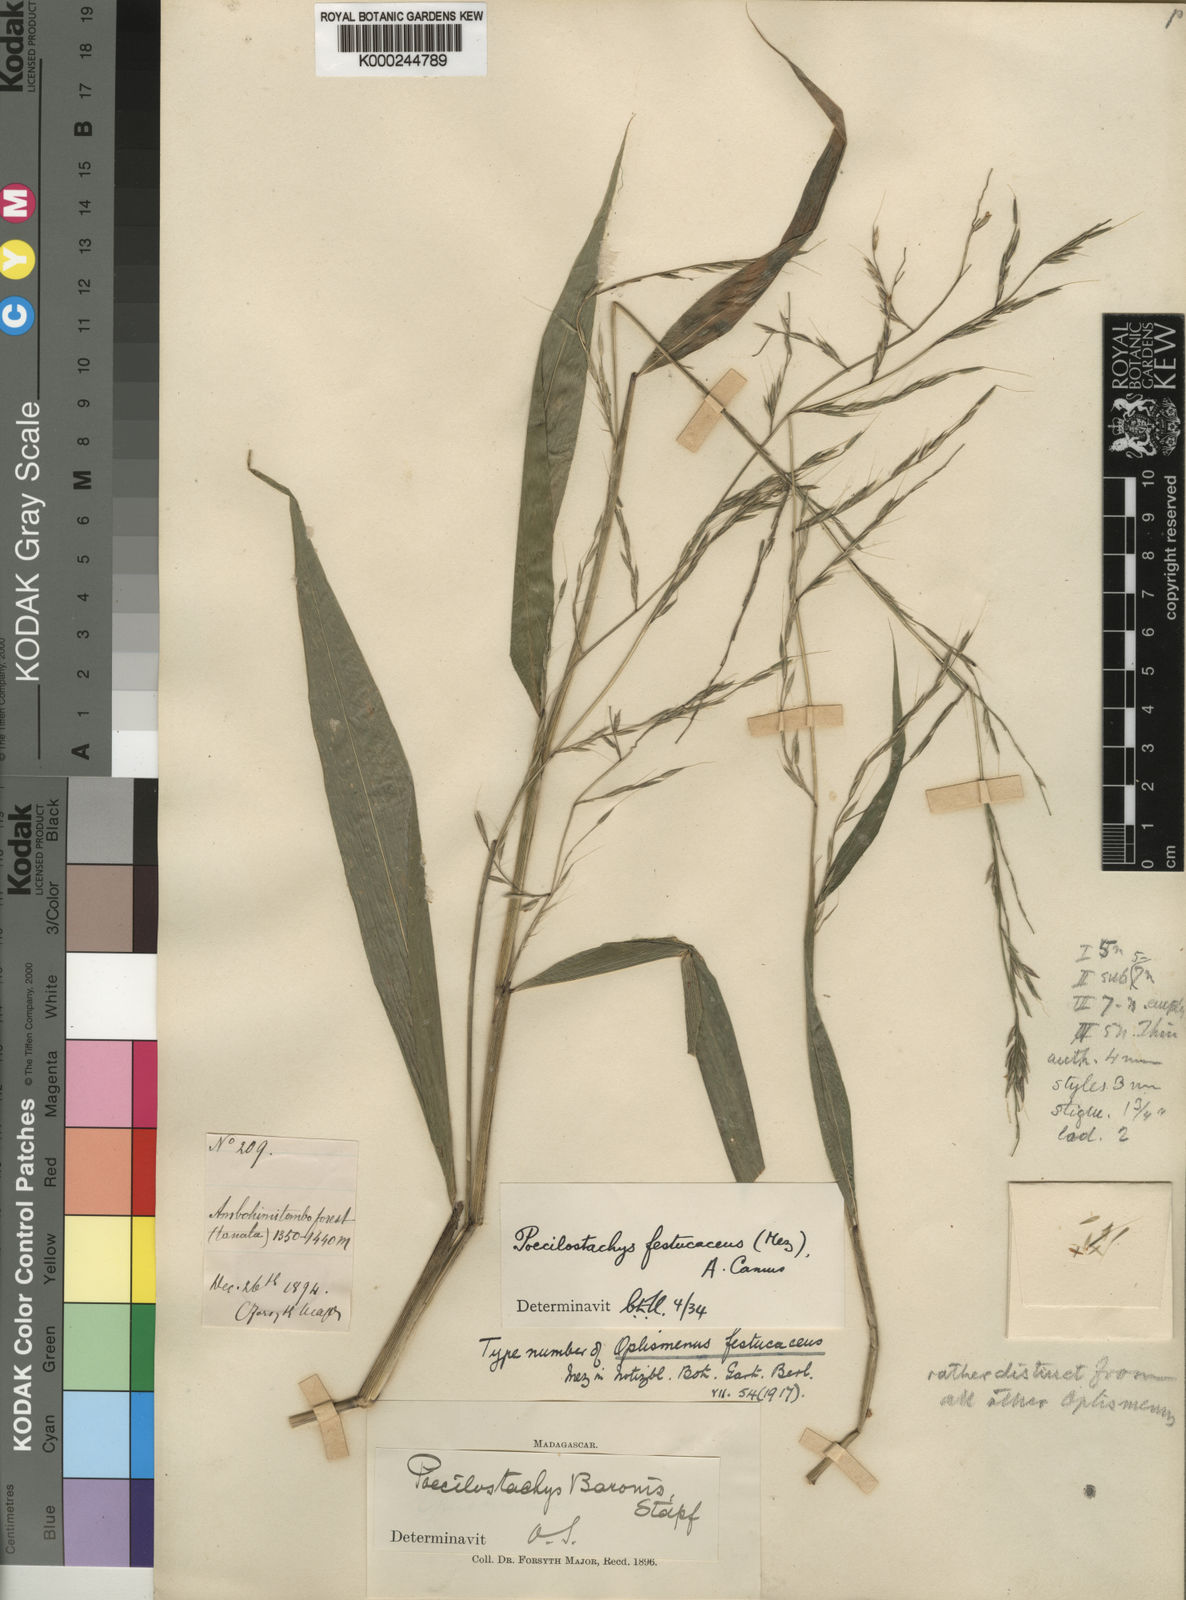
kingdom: Plantae
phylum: Tracheophyta
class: Liliopsida
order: Poales
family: Poaceae
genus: Poecilostachys
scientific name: Poecilostachys baronis
